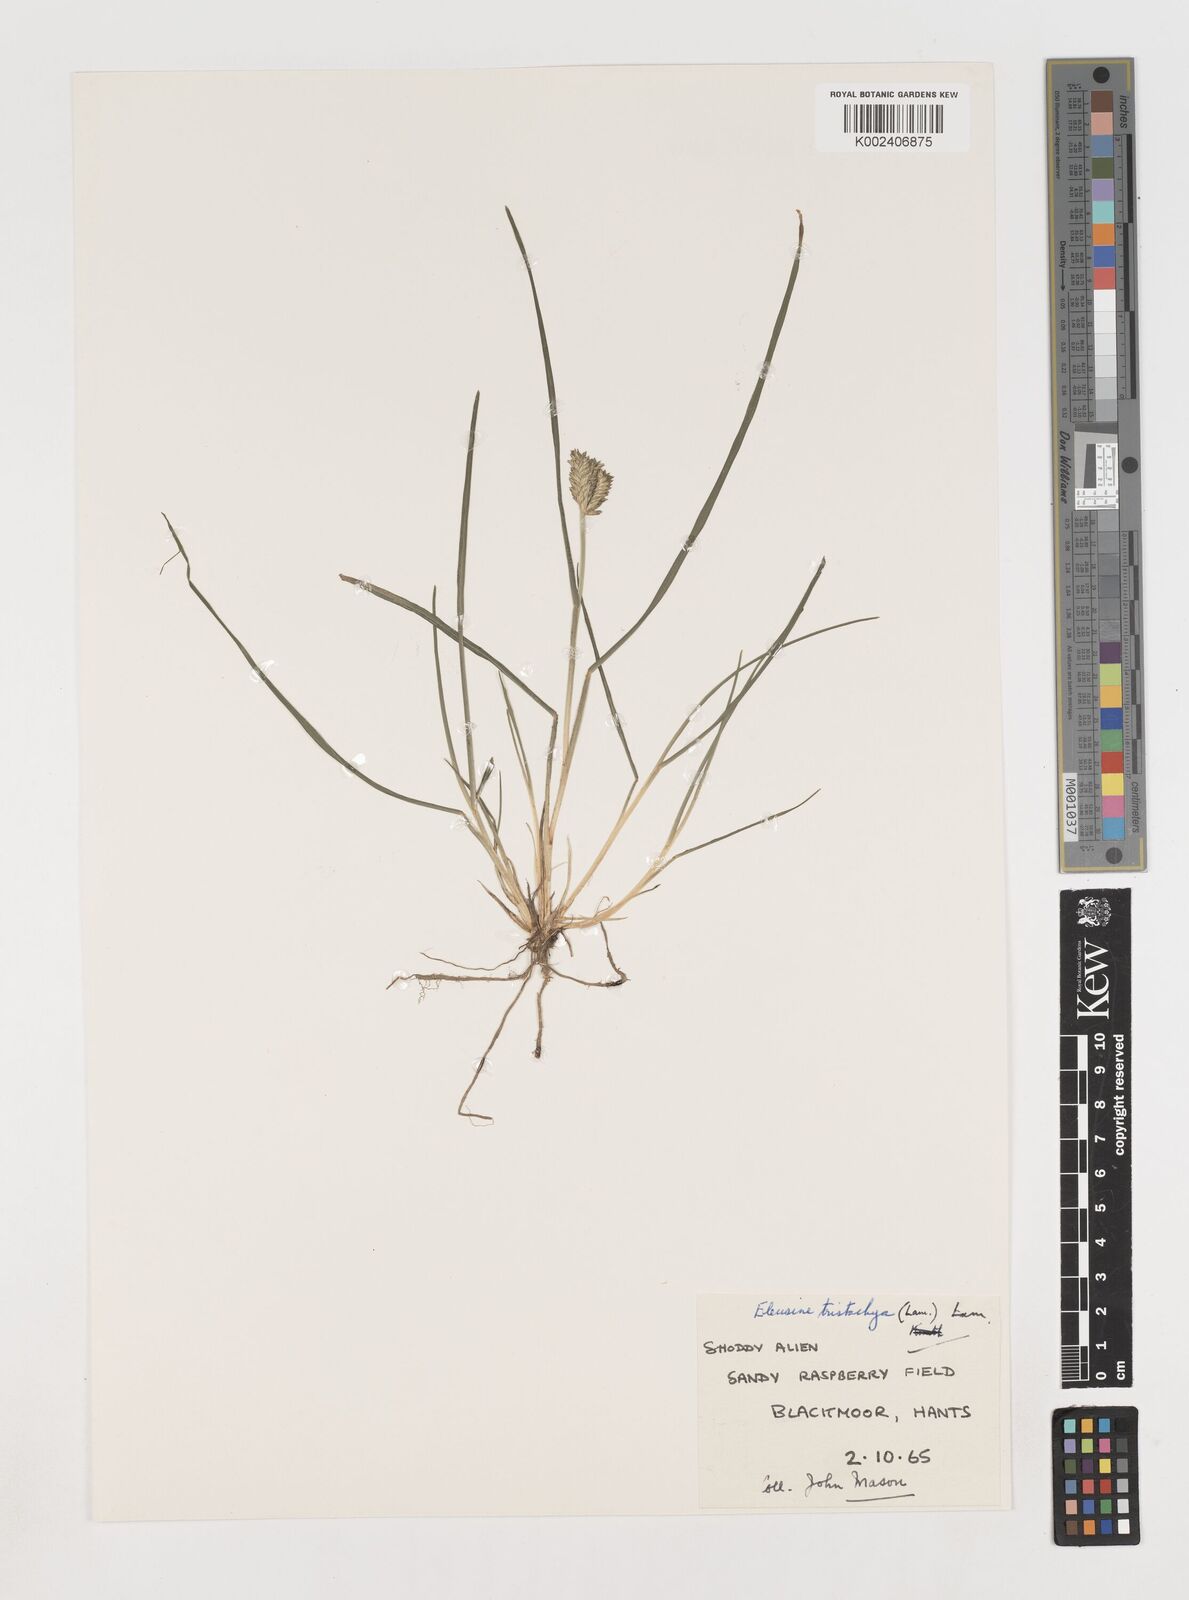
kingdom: Plantae
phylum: Tracheophyta
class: Liliopsida
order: Poales
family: Poaceae
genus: Eleusine
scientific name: Eleusine tristachya
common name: American yard-grass
